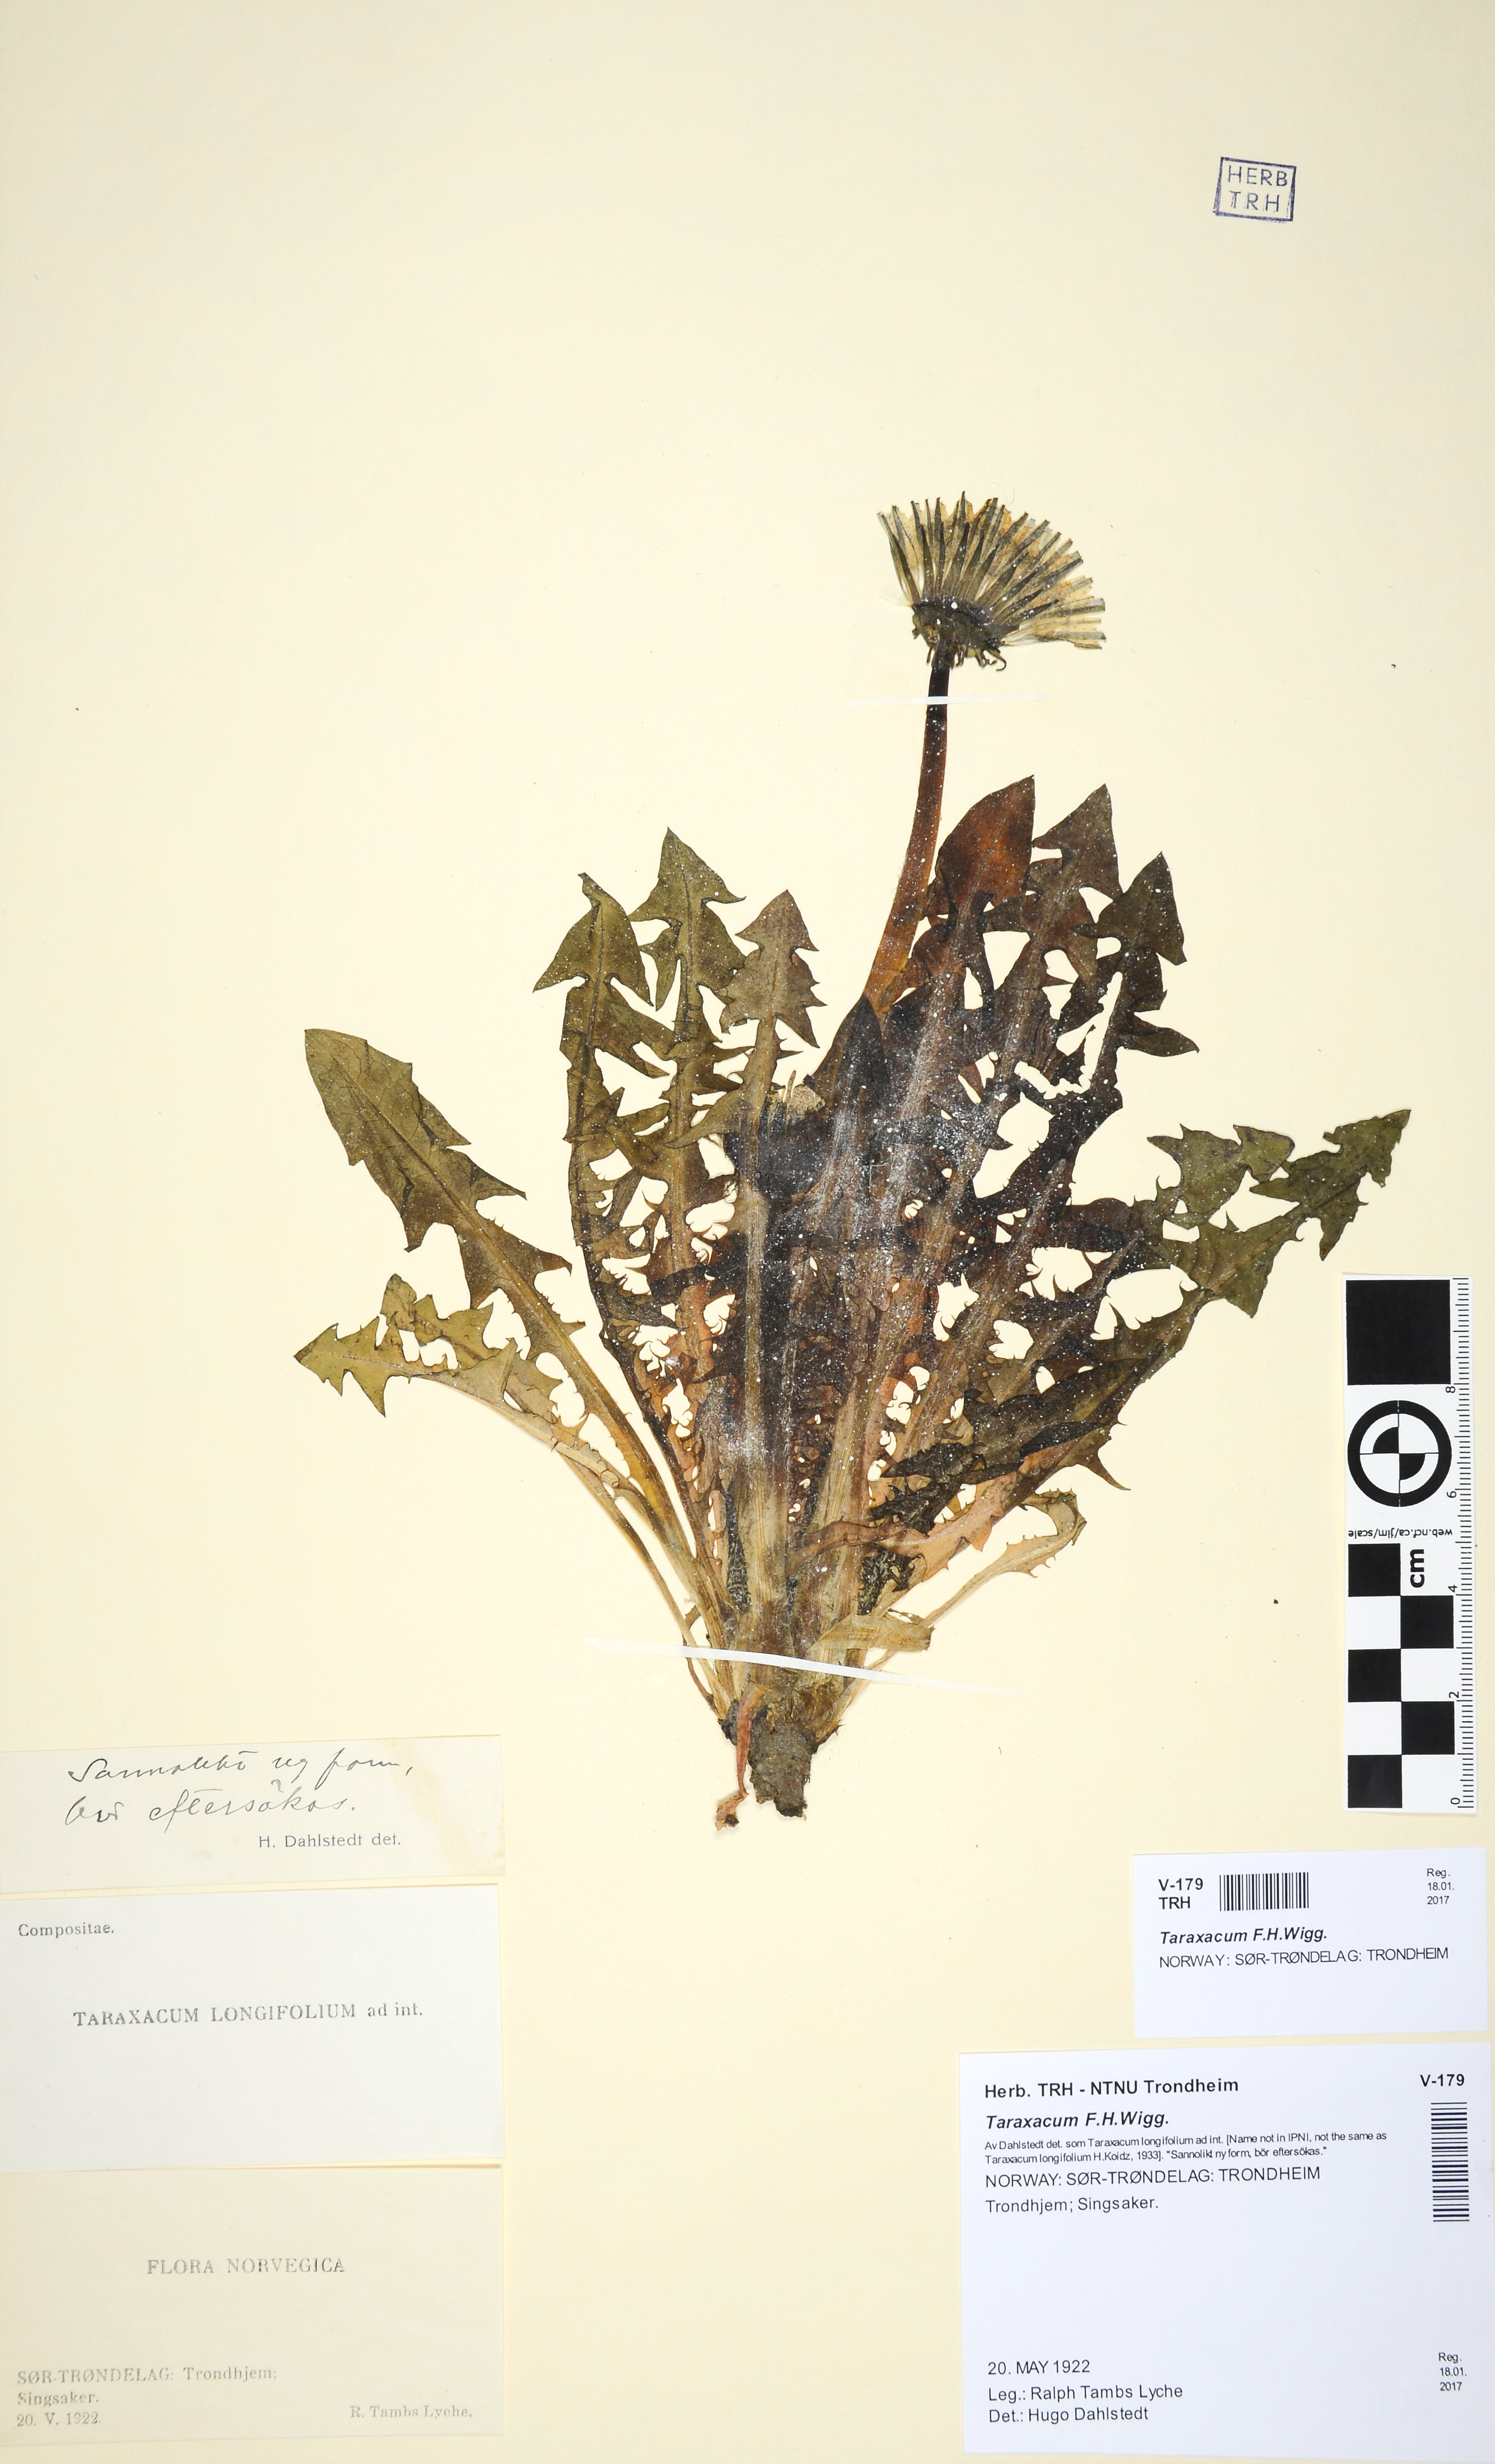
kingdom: Plantae
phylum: Tracheophyta
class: Magnoliopsida
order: Asterales
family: Asteraceae
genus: Taraxacum
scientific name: Taraxacum
